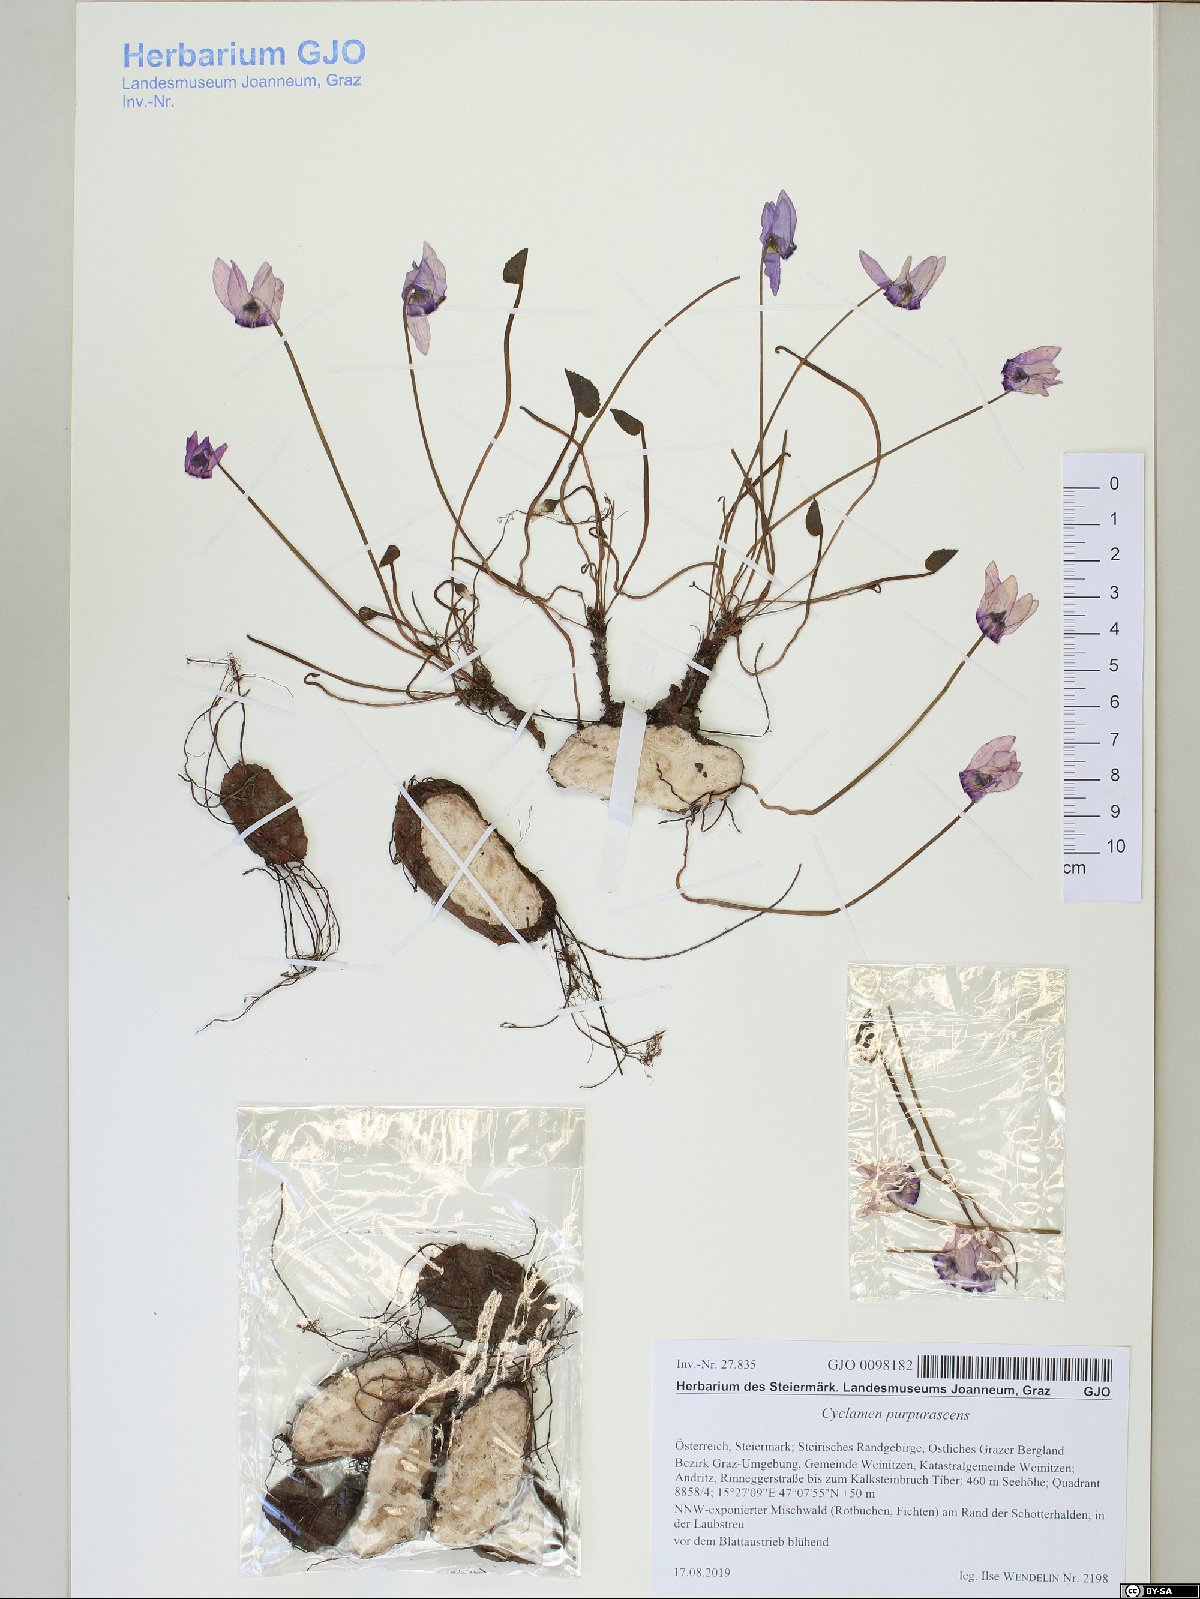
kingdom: Plantae
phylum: Tracheophyta
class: Magnoliopsida
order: Ericales
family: Primulaceae
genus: Cyclamen
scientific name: Cyclamen purpurascens
